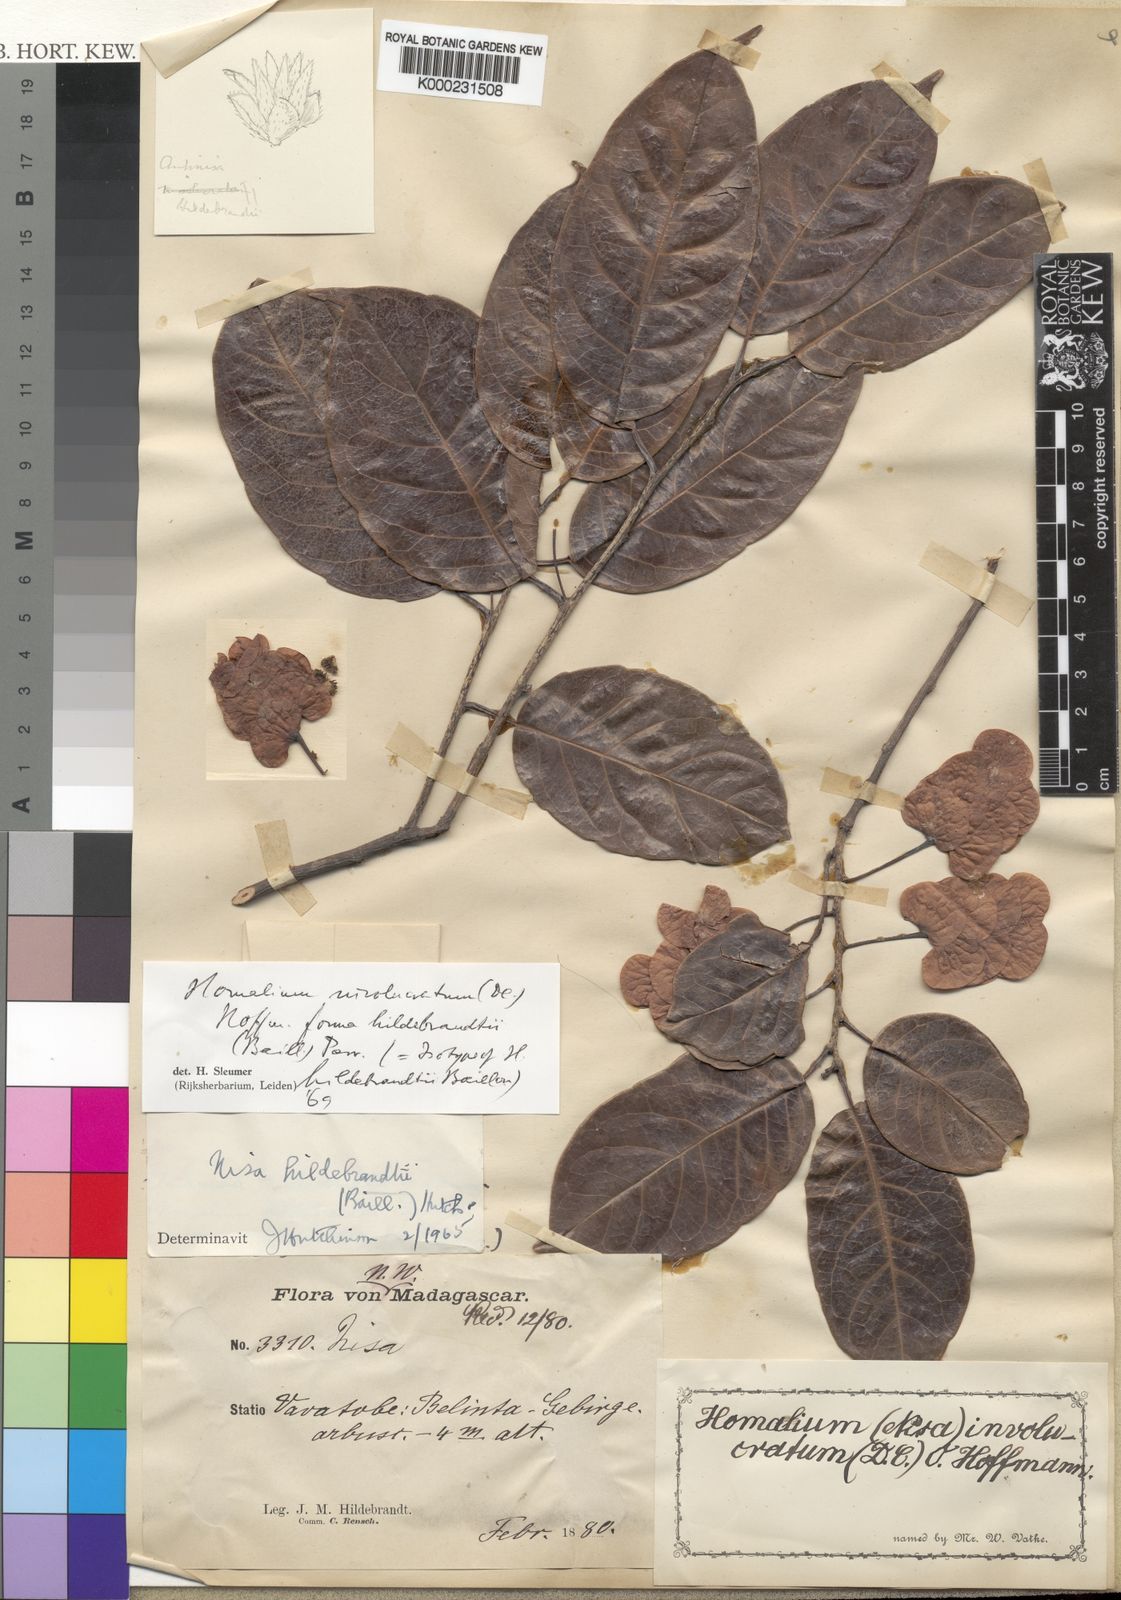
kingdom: Plantae
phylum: Tracheophyta
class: Magnoliopsida
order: Malpighiales
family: Salicaceae
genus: Homalium
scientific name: Homalium involucratum
